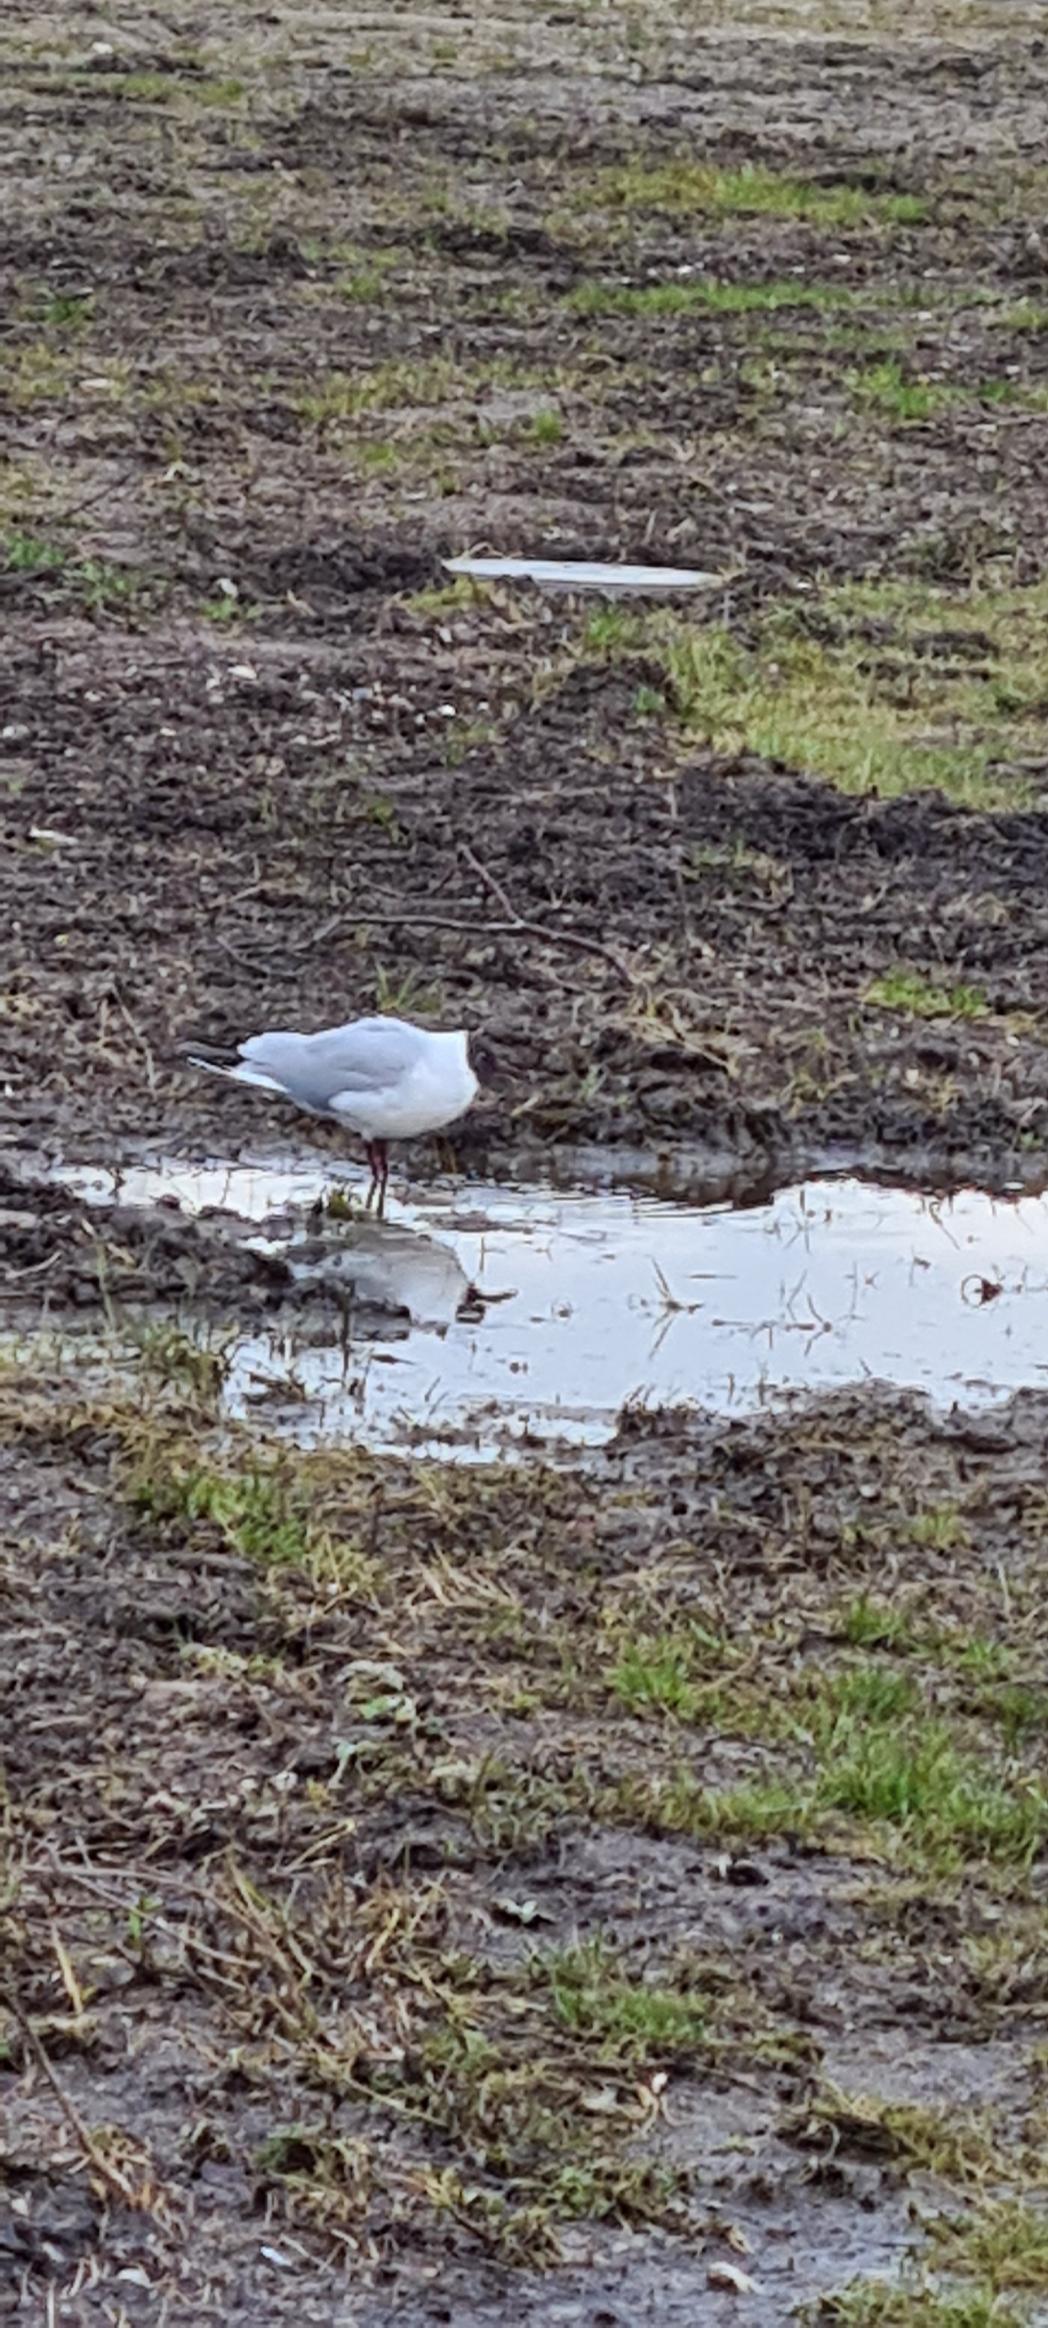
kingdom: Animalia
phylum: Chordata
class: Aves
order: Charadriiformes
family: Laridae
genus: Chroicocephalus
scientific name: Chroicocephalus ridibundus
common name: Hættemåge
